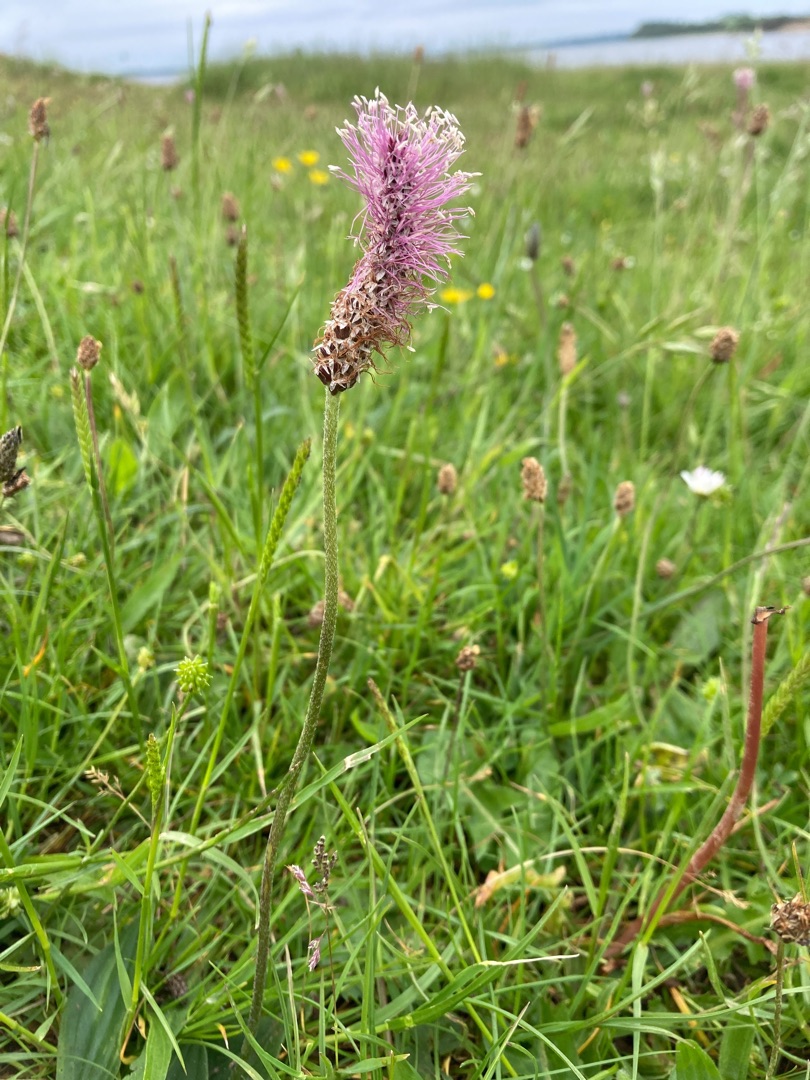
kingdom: Plantae
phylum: Tracheophyta
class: Magnoliopsida
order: Lamiales
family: Plantaginaceae
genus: Plantago
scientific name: Plantago media
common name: Dunet vejbred
